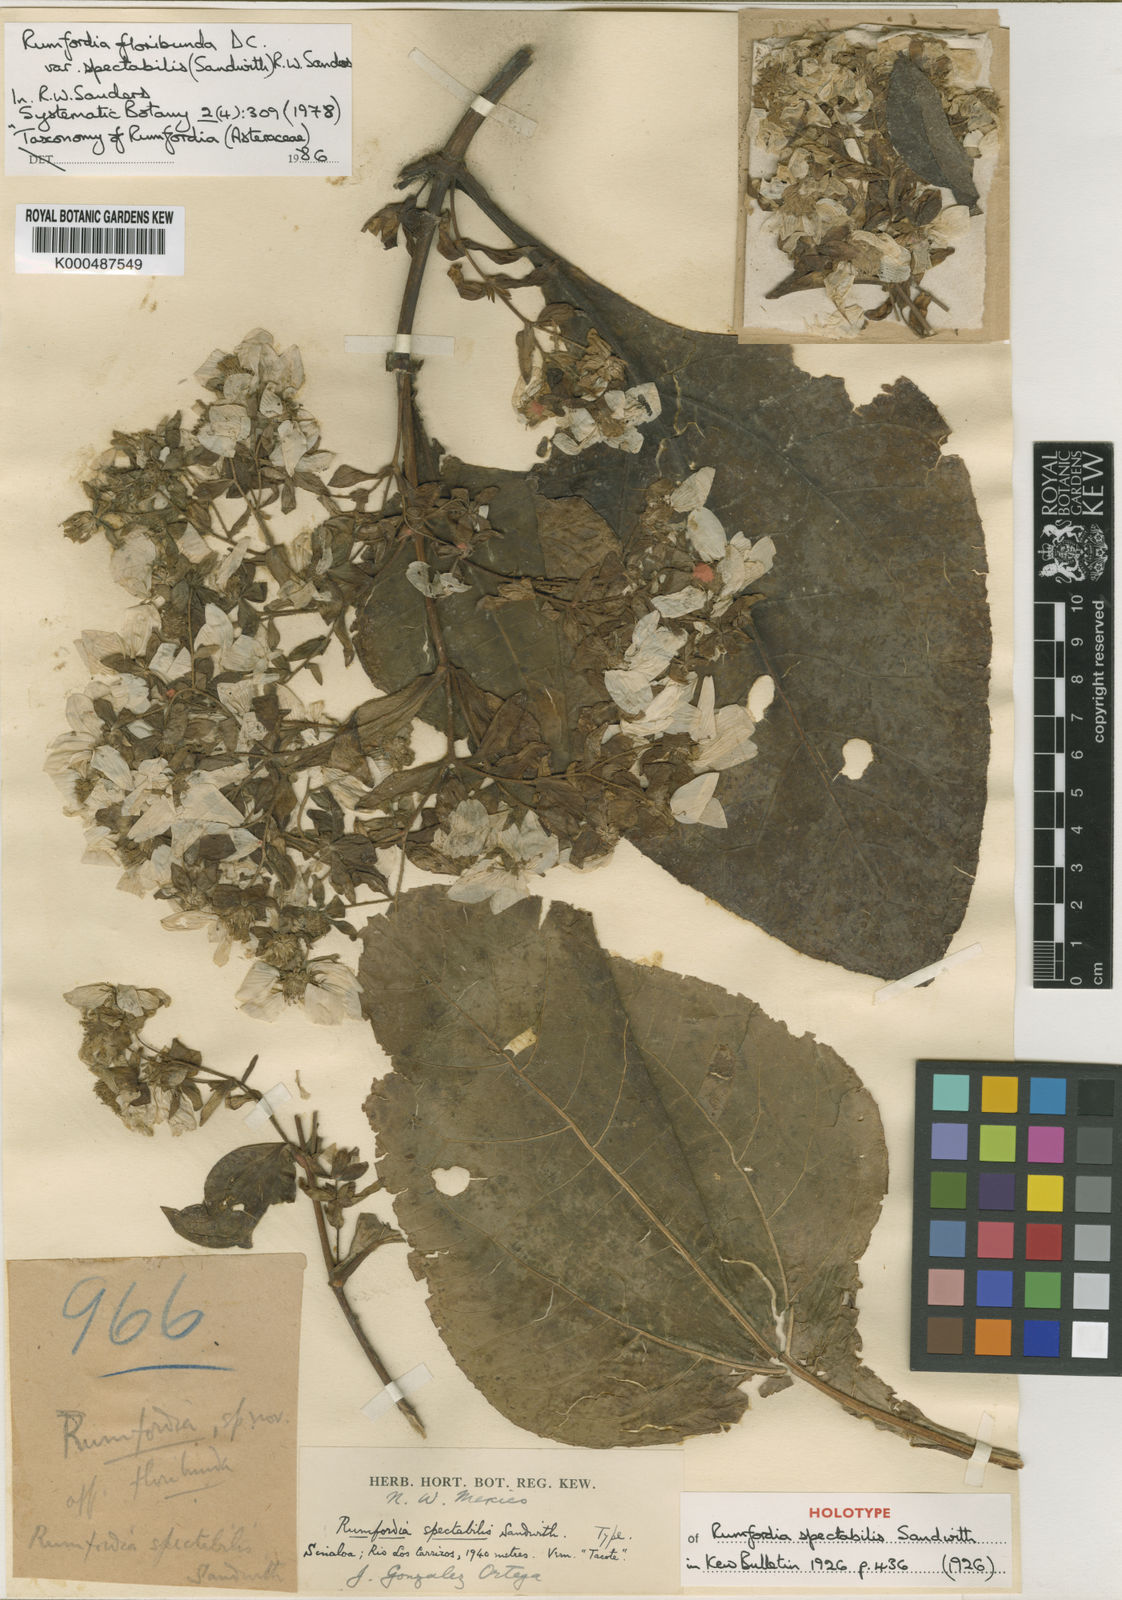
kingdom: Plantae
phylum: Tracheophyta
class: Magnoliopsida
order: Asterales
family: Asteraceae
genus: Rumfordia
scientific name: Rumfordia floribunda
